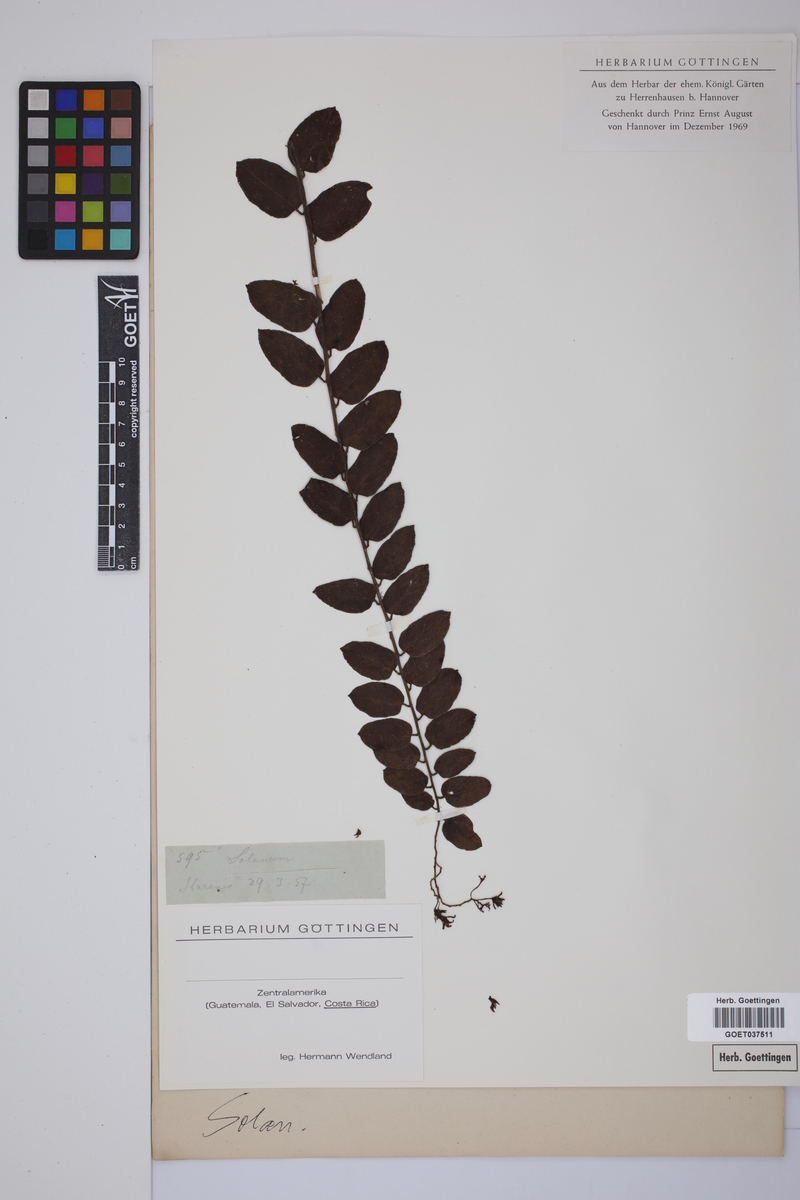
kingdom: Plantae
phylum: Tracheophyta
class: Magnoliopsida
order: Solanales
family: Solanaceae
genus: Solanum
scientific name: Solanum
